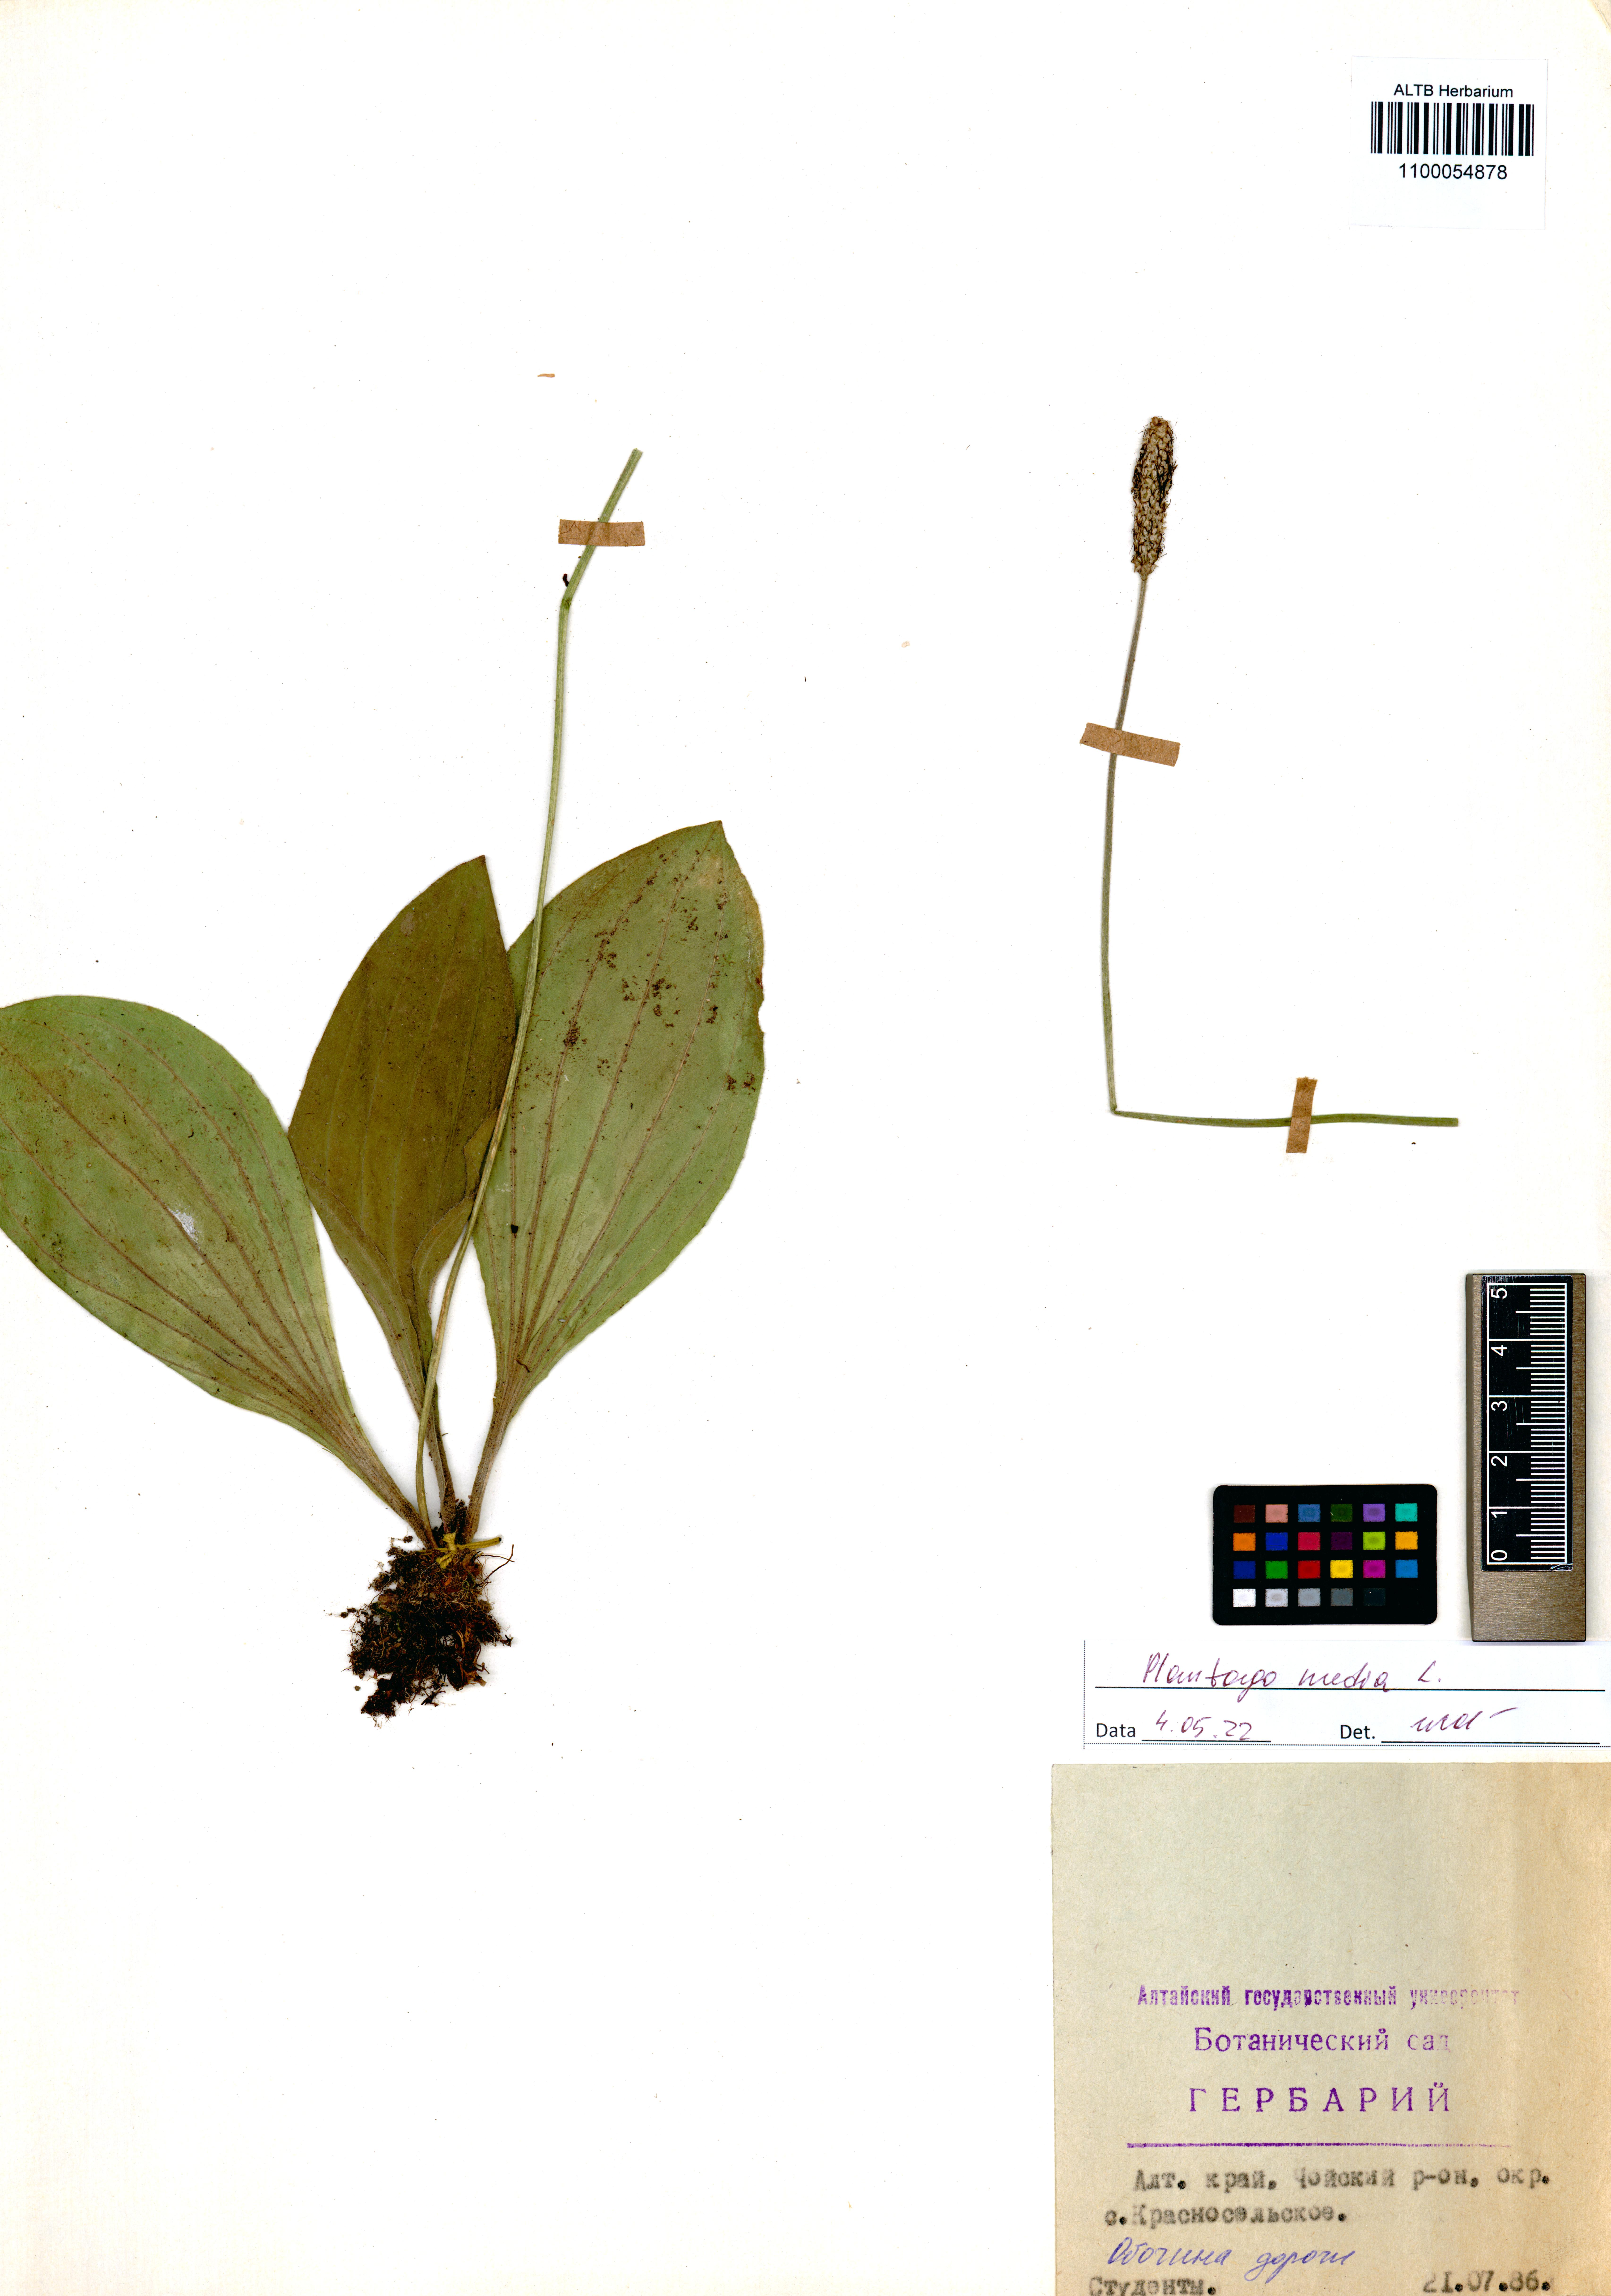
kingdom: Plantae
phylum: Tracheophyta
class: Magnoliopsida
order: Lamiales
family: Plantaginaceae
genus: Plantago
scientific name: Plantago media
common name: Hoary plantain
